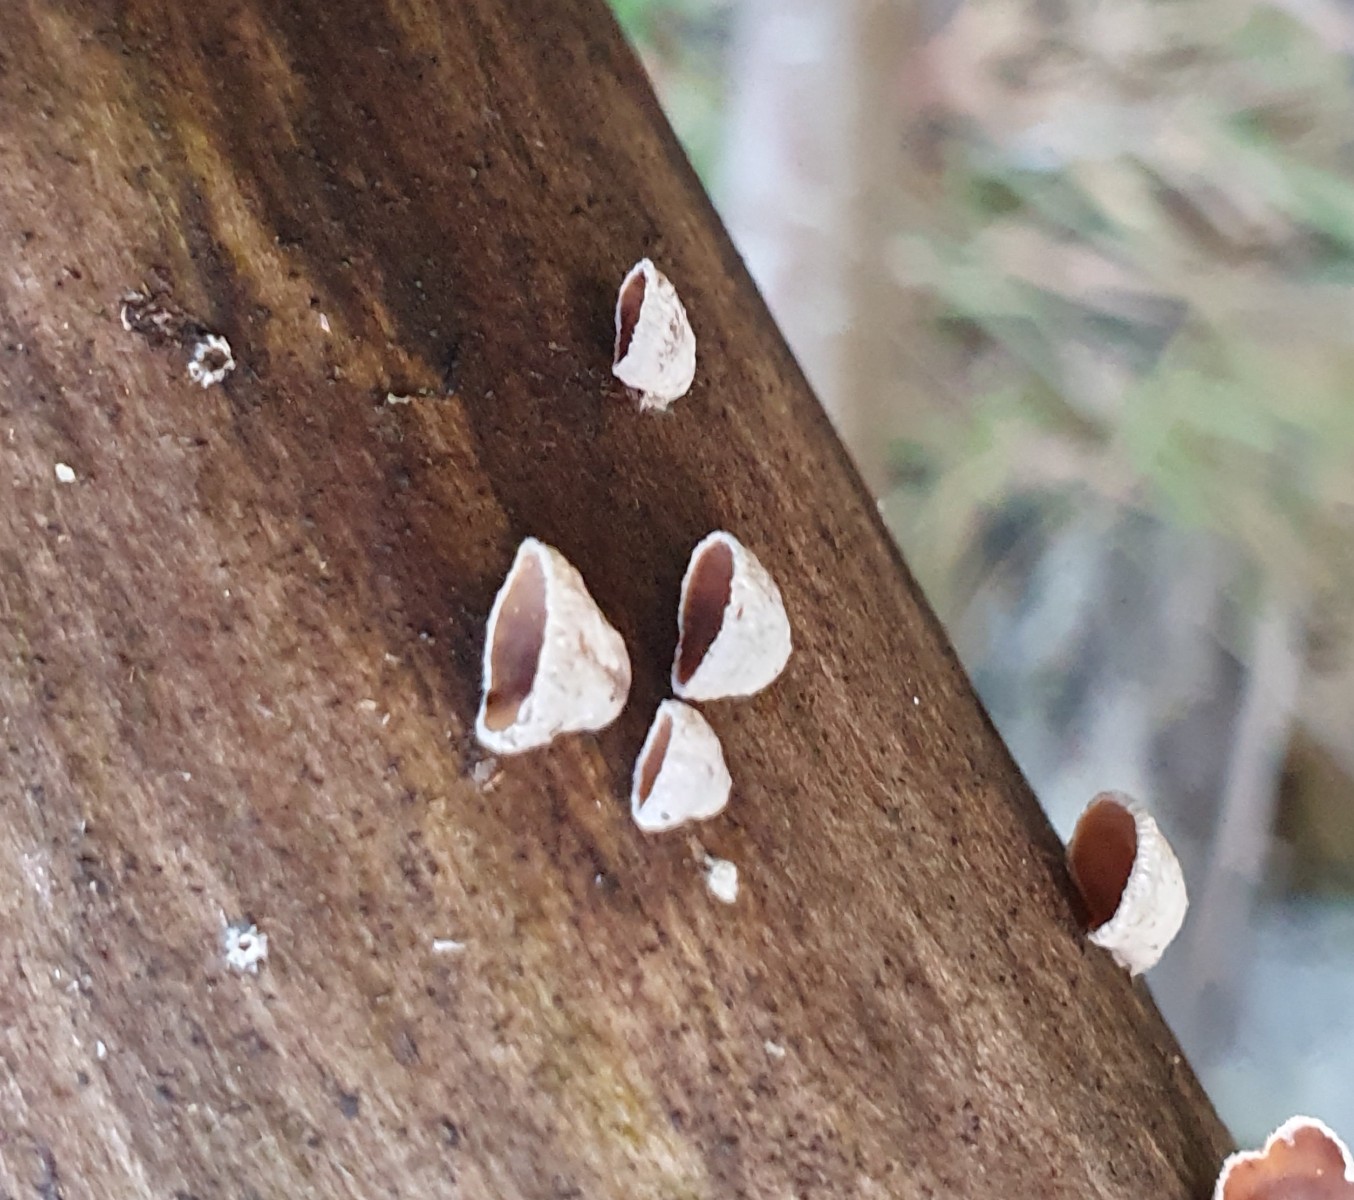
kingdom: Fungi
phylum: Basidiomycota
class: Agaricomycetes
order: Agaricales
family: Schizophyllaceae
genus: Schizophyllum
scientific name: Schizophyllum amplum
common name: poppel-hængeøre
